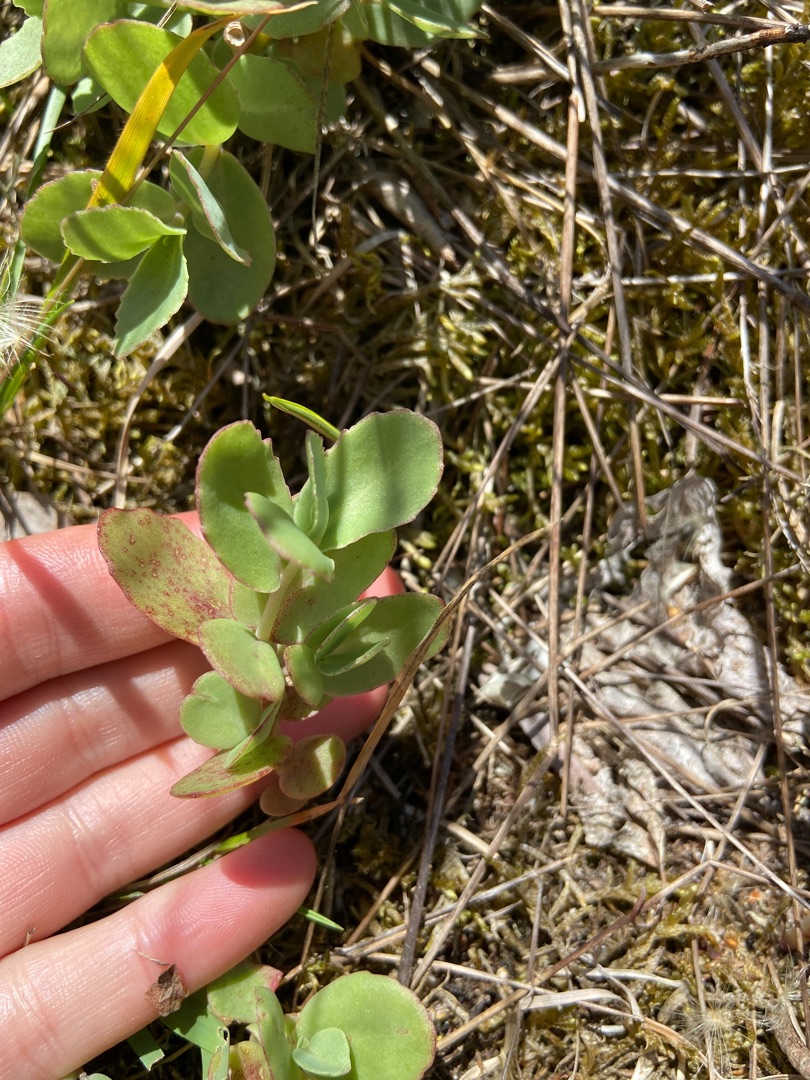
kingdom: Plantae
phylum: Tracheophyta
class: Magnoliopsida
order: Saxifragales
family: Crassulaceae
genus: Hylotelephium
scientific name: Hylotelephium maximum
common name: Almindelig sankthansurt
